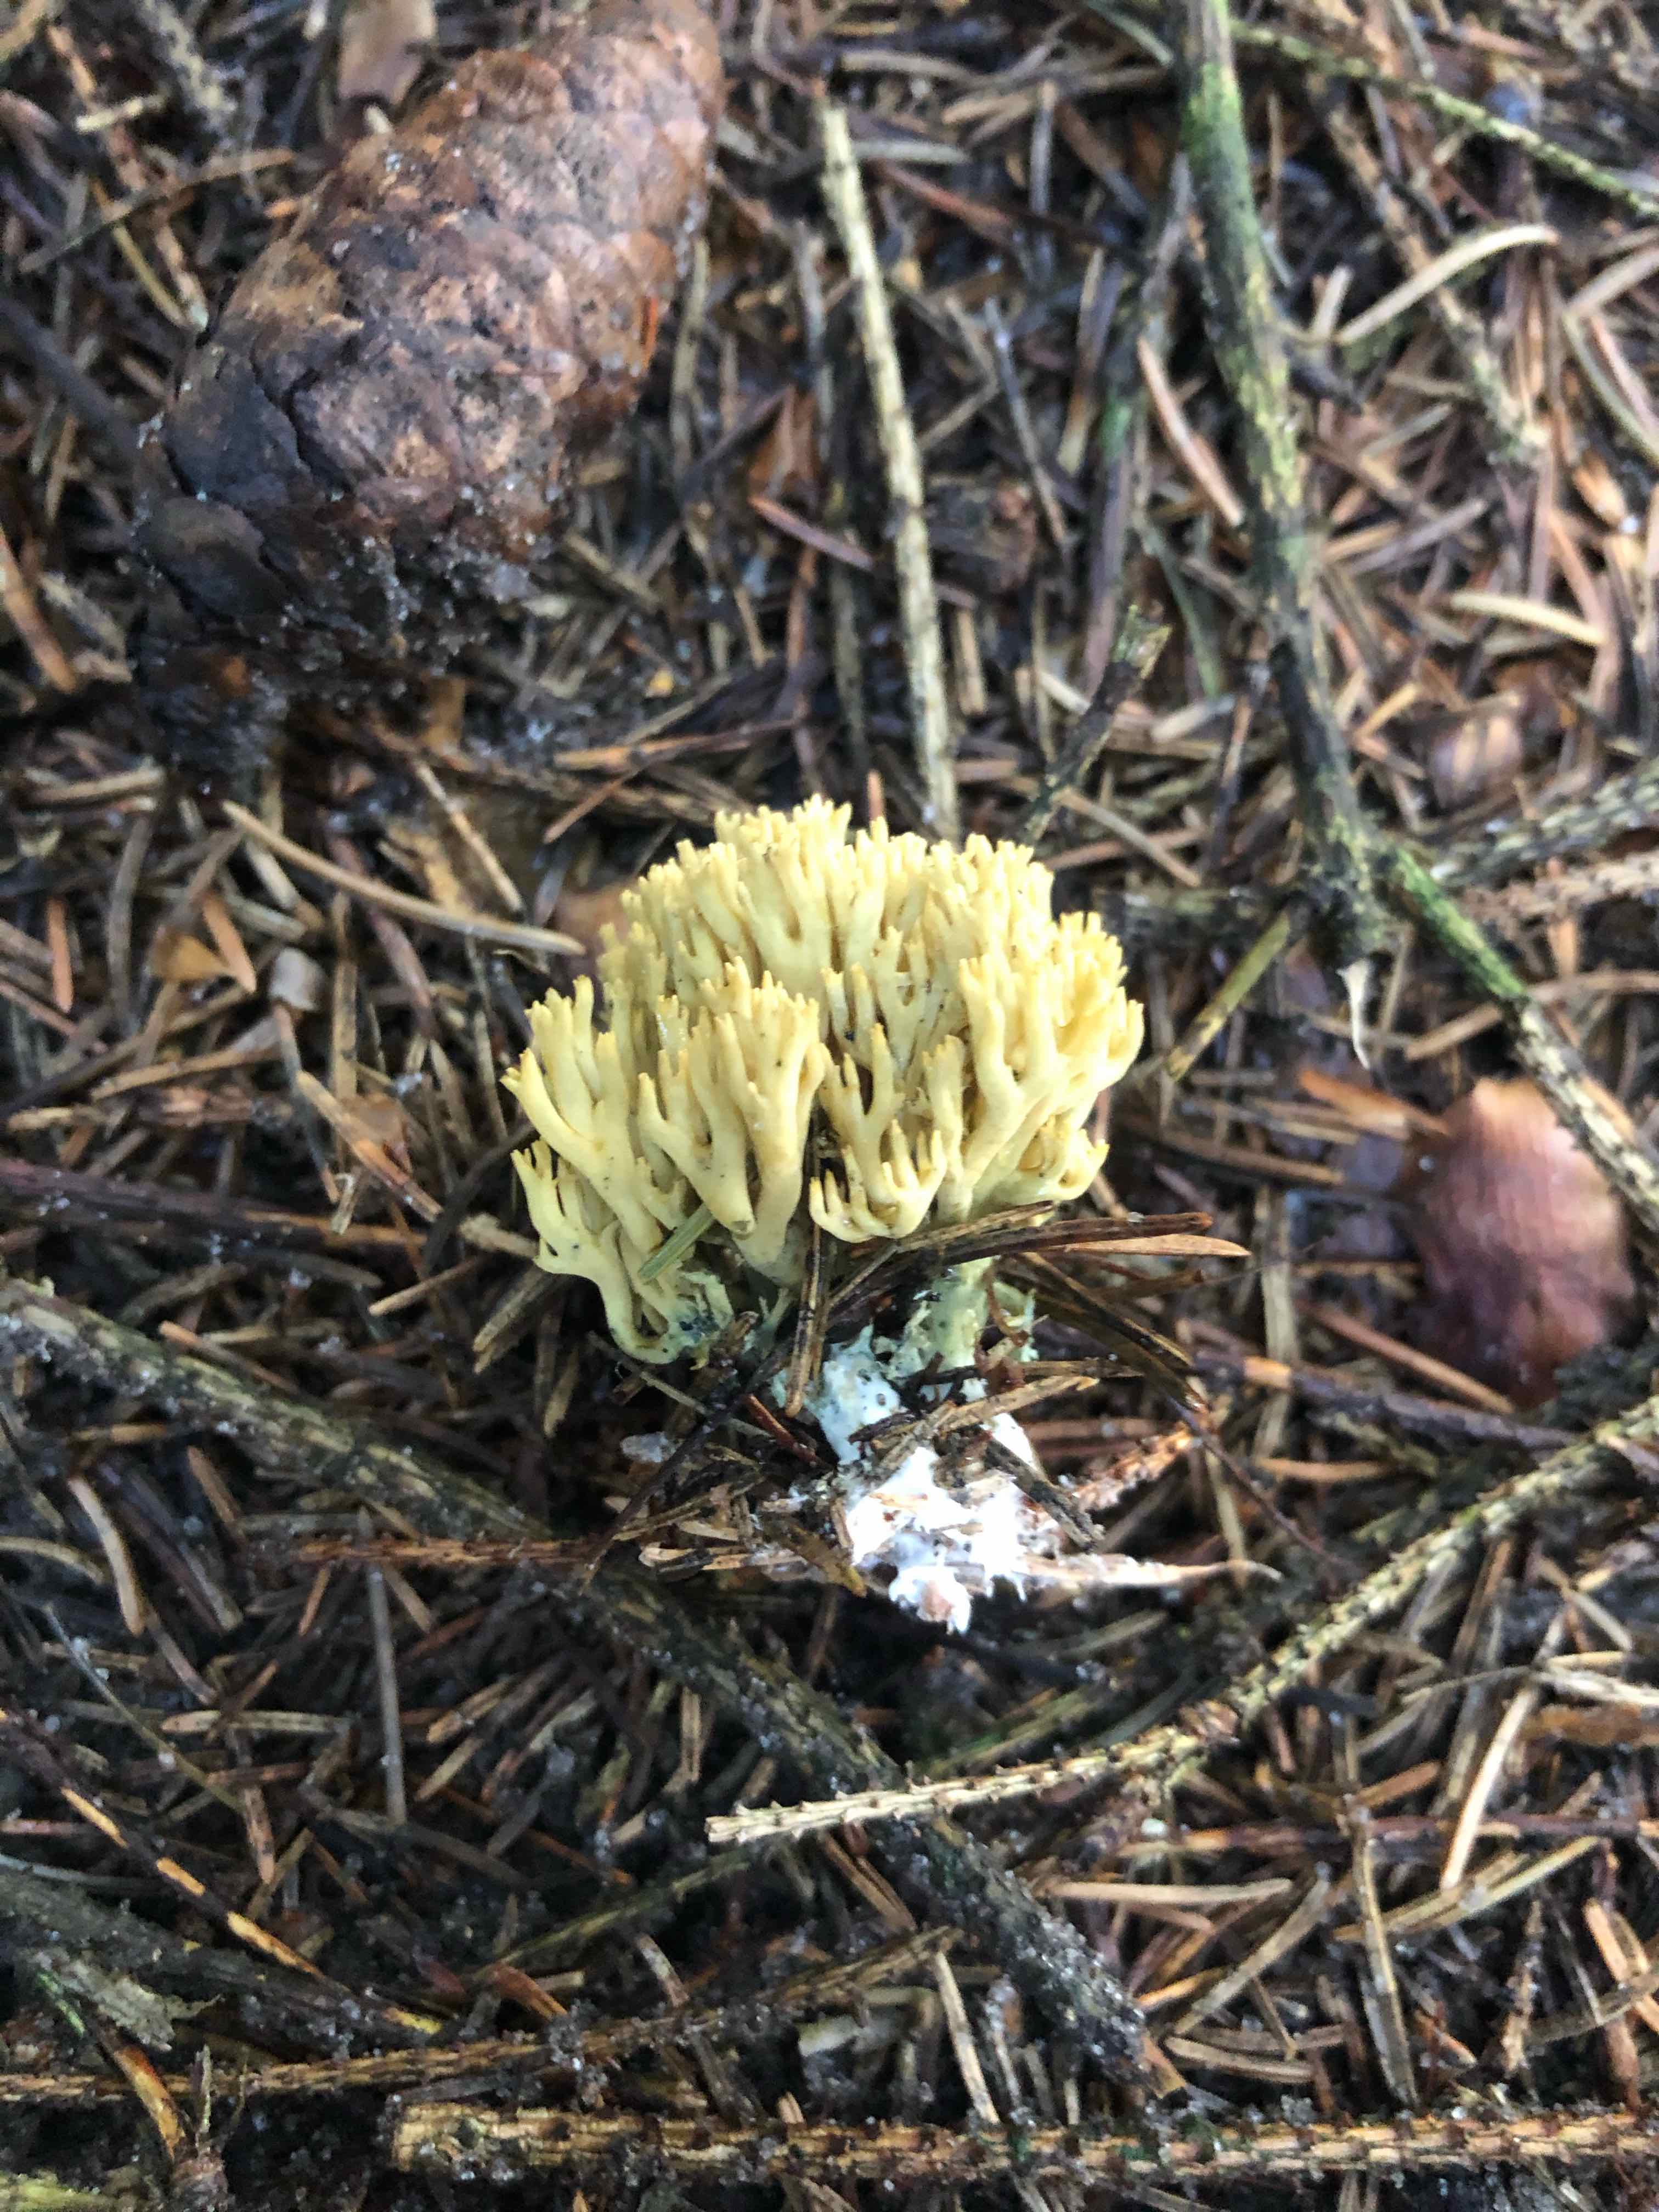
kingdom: Fungi
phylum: Basidiomycota
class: Agaricomycetes
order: Gomphales
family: Gomphaceae
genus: Phaeoclavulina
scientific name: Phaeoclavulina abietina
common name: gulgrøn koralsvamp
